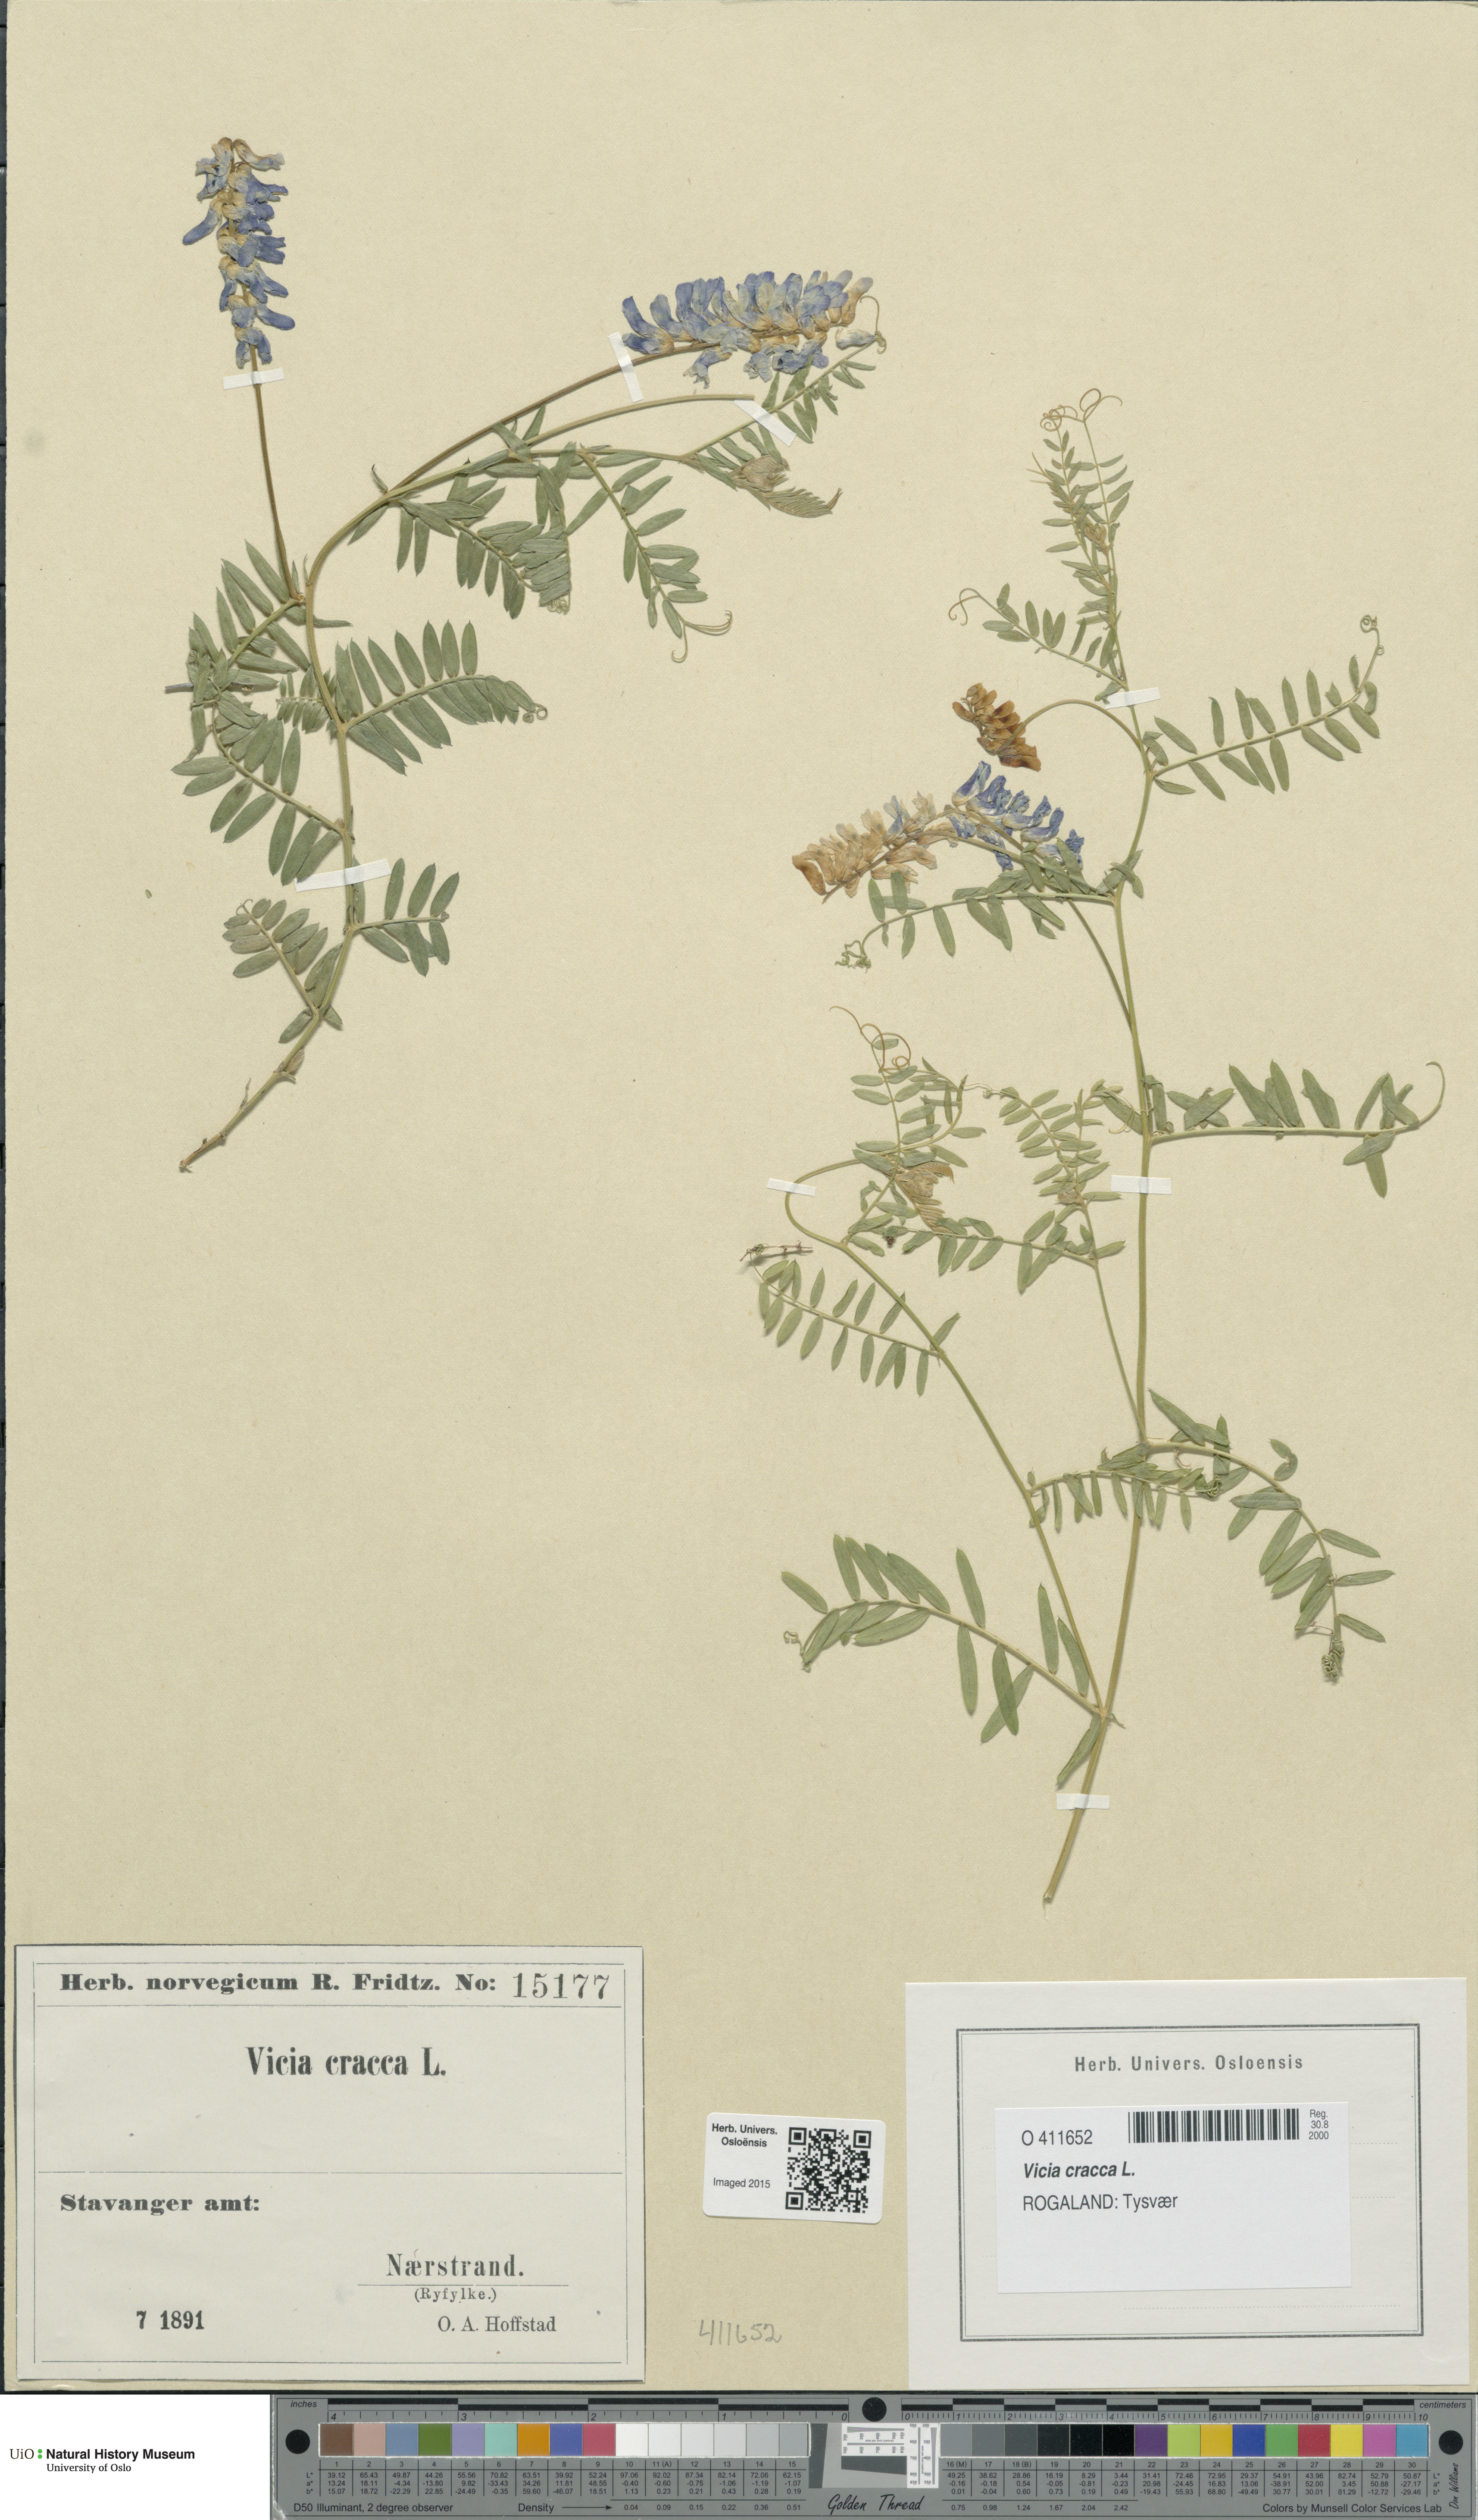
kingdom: Plantae
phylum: Tracheophyta
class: Magnoliopsida
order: Fabales
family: Fabaceae
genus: Vicia
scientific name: Vicia cracca
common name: Bird vetch
